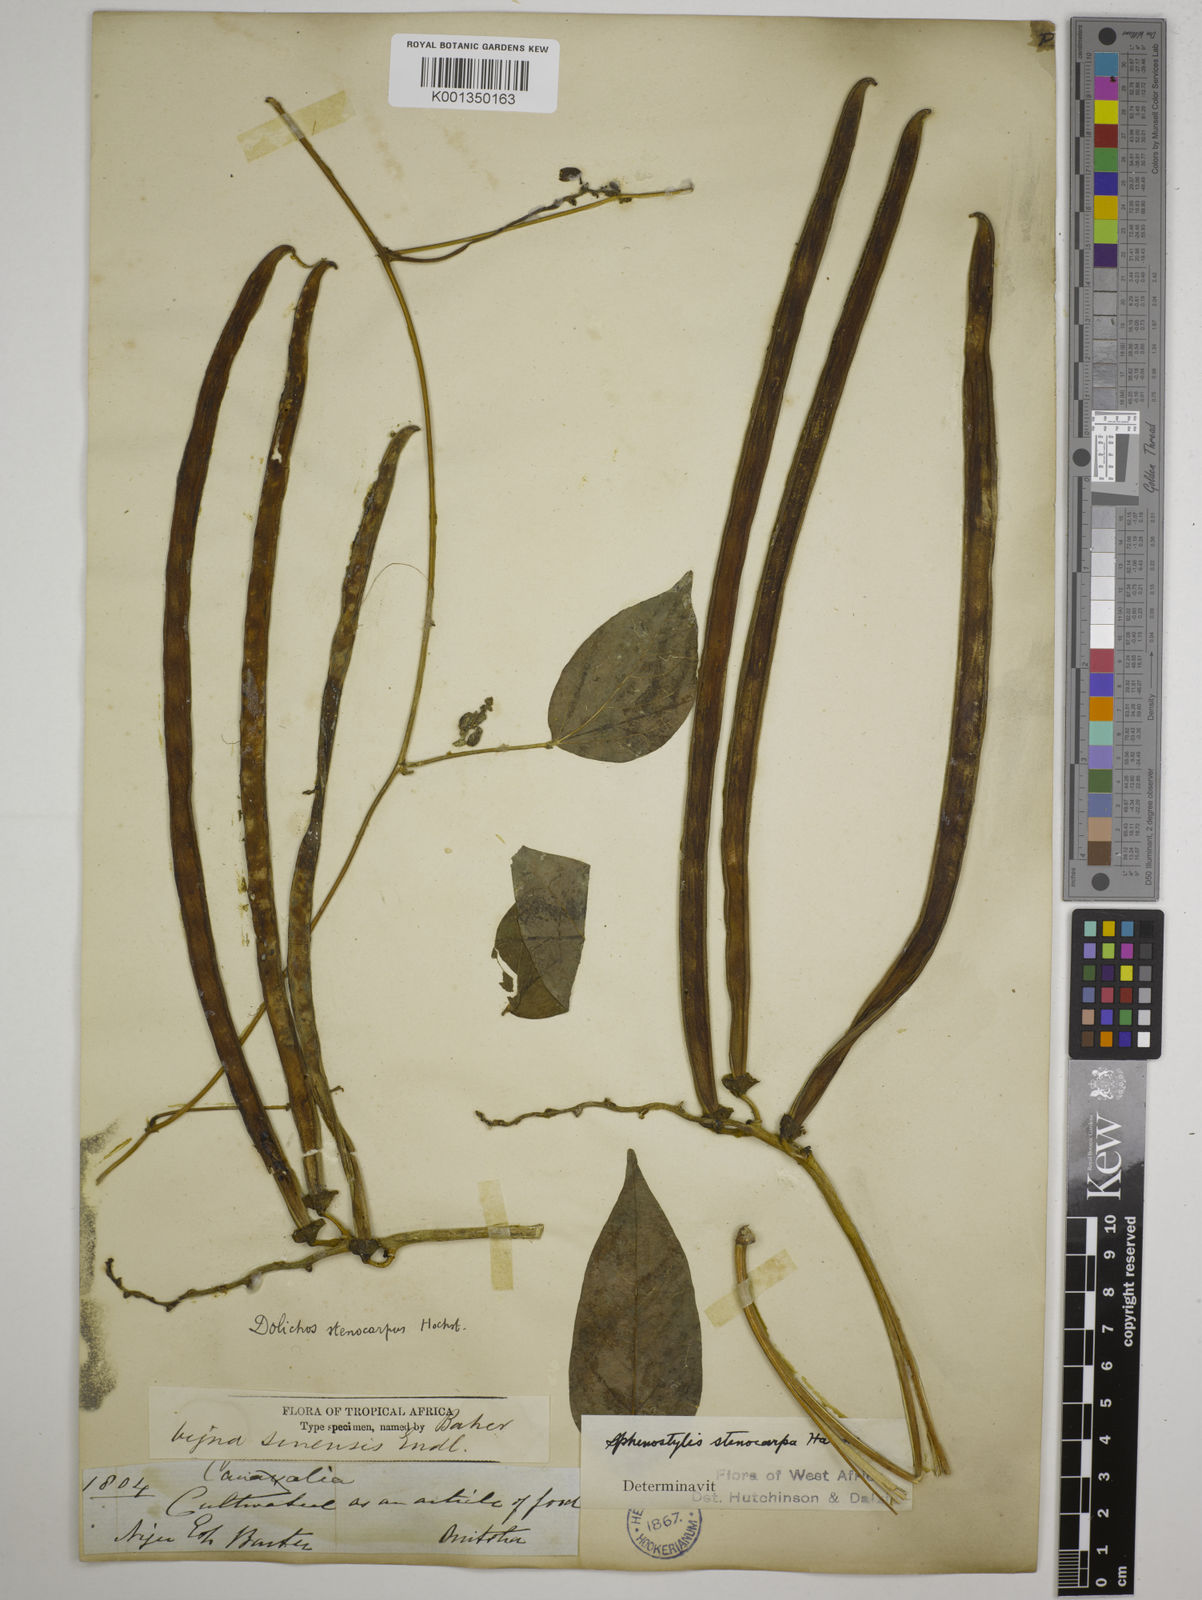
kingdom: Plantae
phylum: Tracheophyta
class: Magnoliopsida
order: Fabales
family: Fabaceae
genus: Sphenostylis
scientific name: Sphenostylis stenocarpa
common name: Yam-pea
